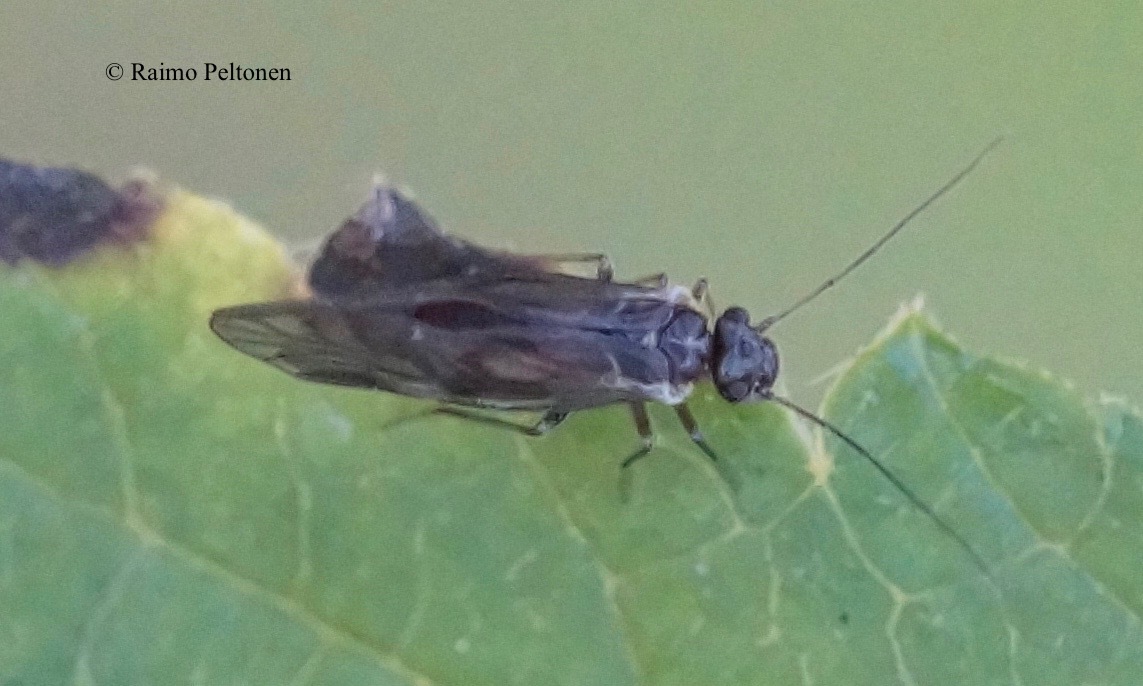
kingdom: Animalia
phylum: Arthropoda
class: Insecta
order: Psocodea
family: Elipsocidae
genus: Elipsocus
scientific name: Elipsocus moebiusi
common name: Bark louse
